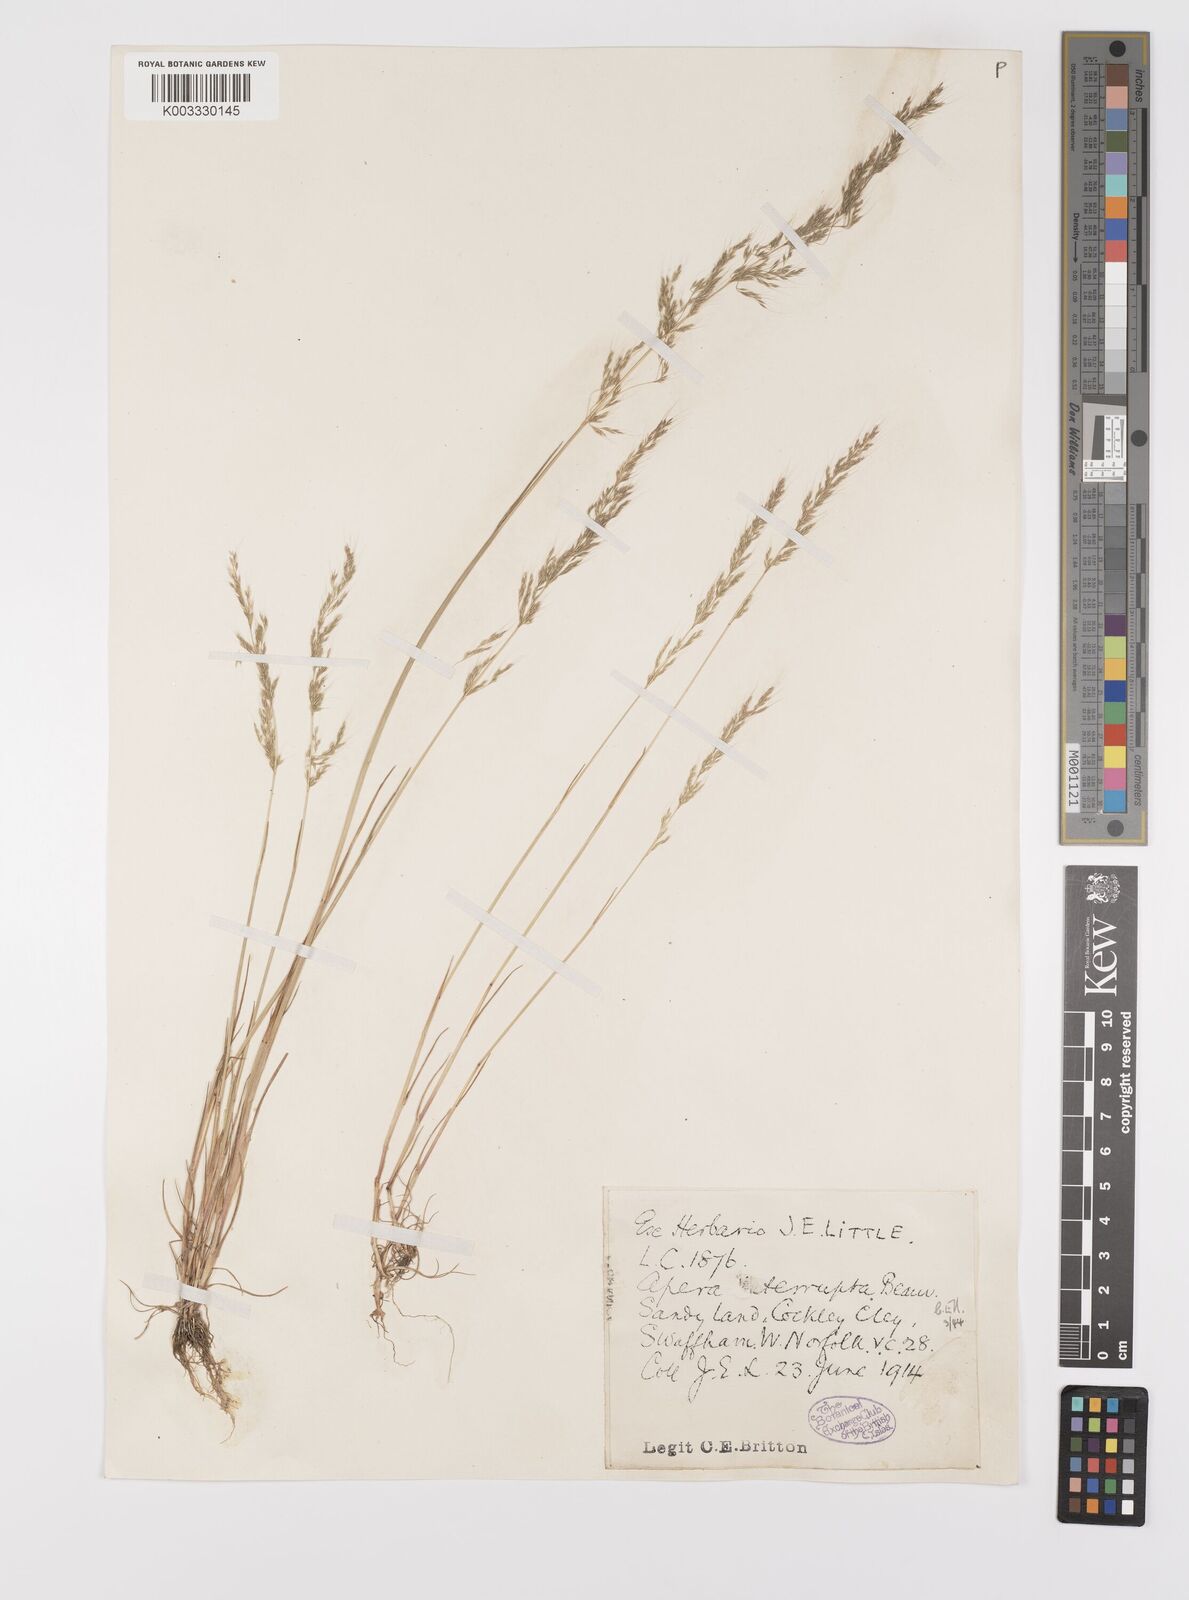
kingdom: Plantae
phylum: Tracheophyta
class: Liliopsida
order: Poales
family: Poaceae
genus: Apera
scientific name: Apera interrupta
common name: Dense silky-bent
